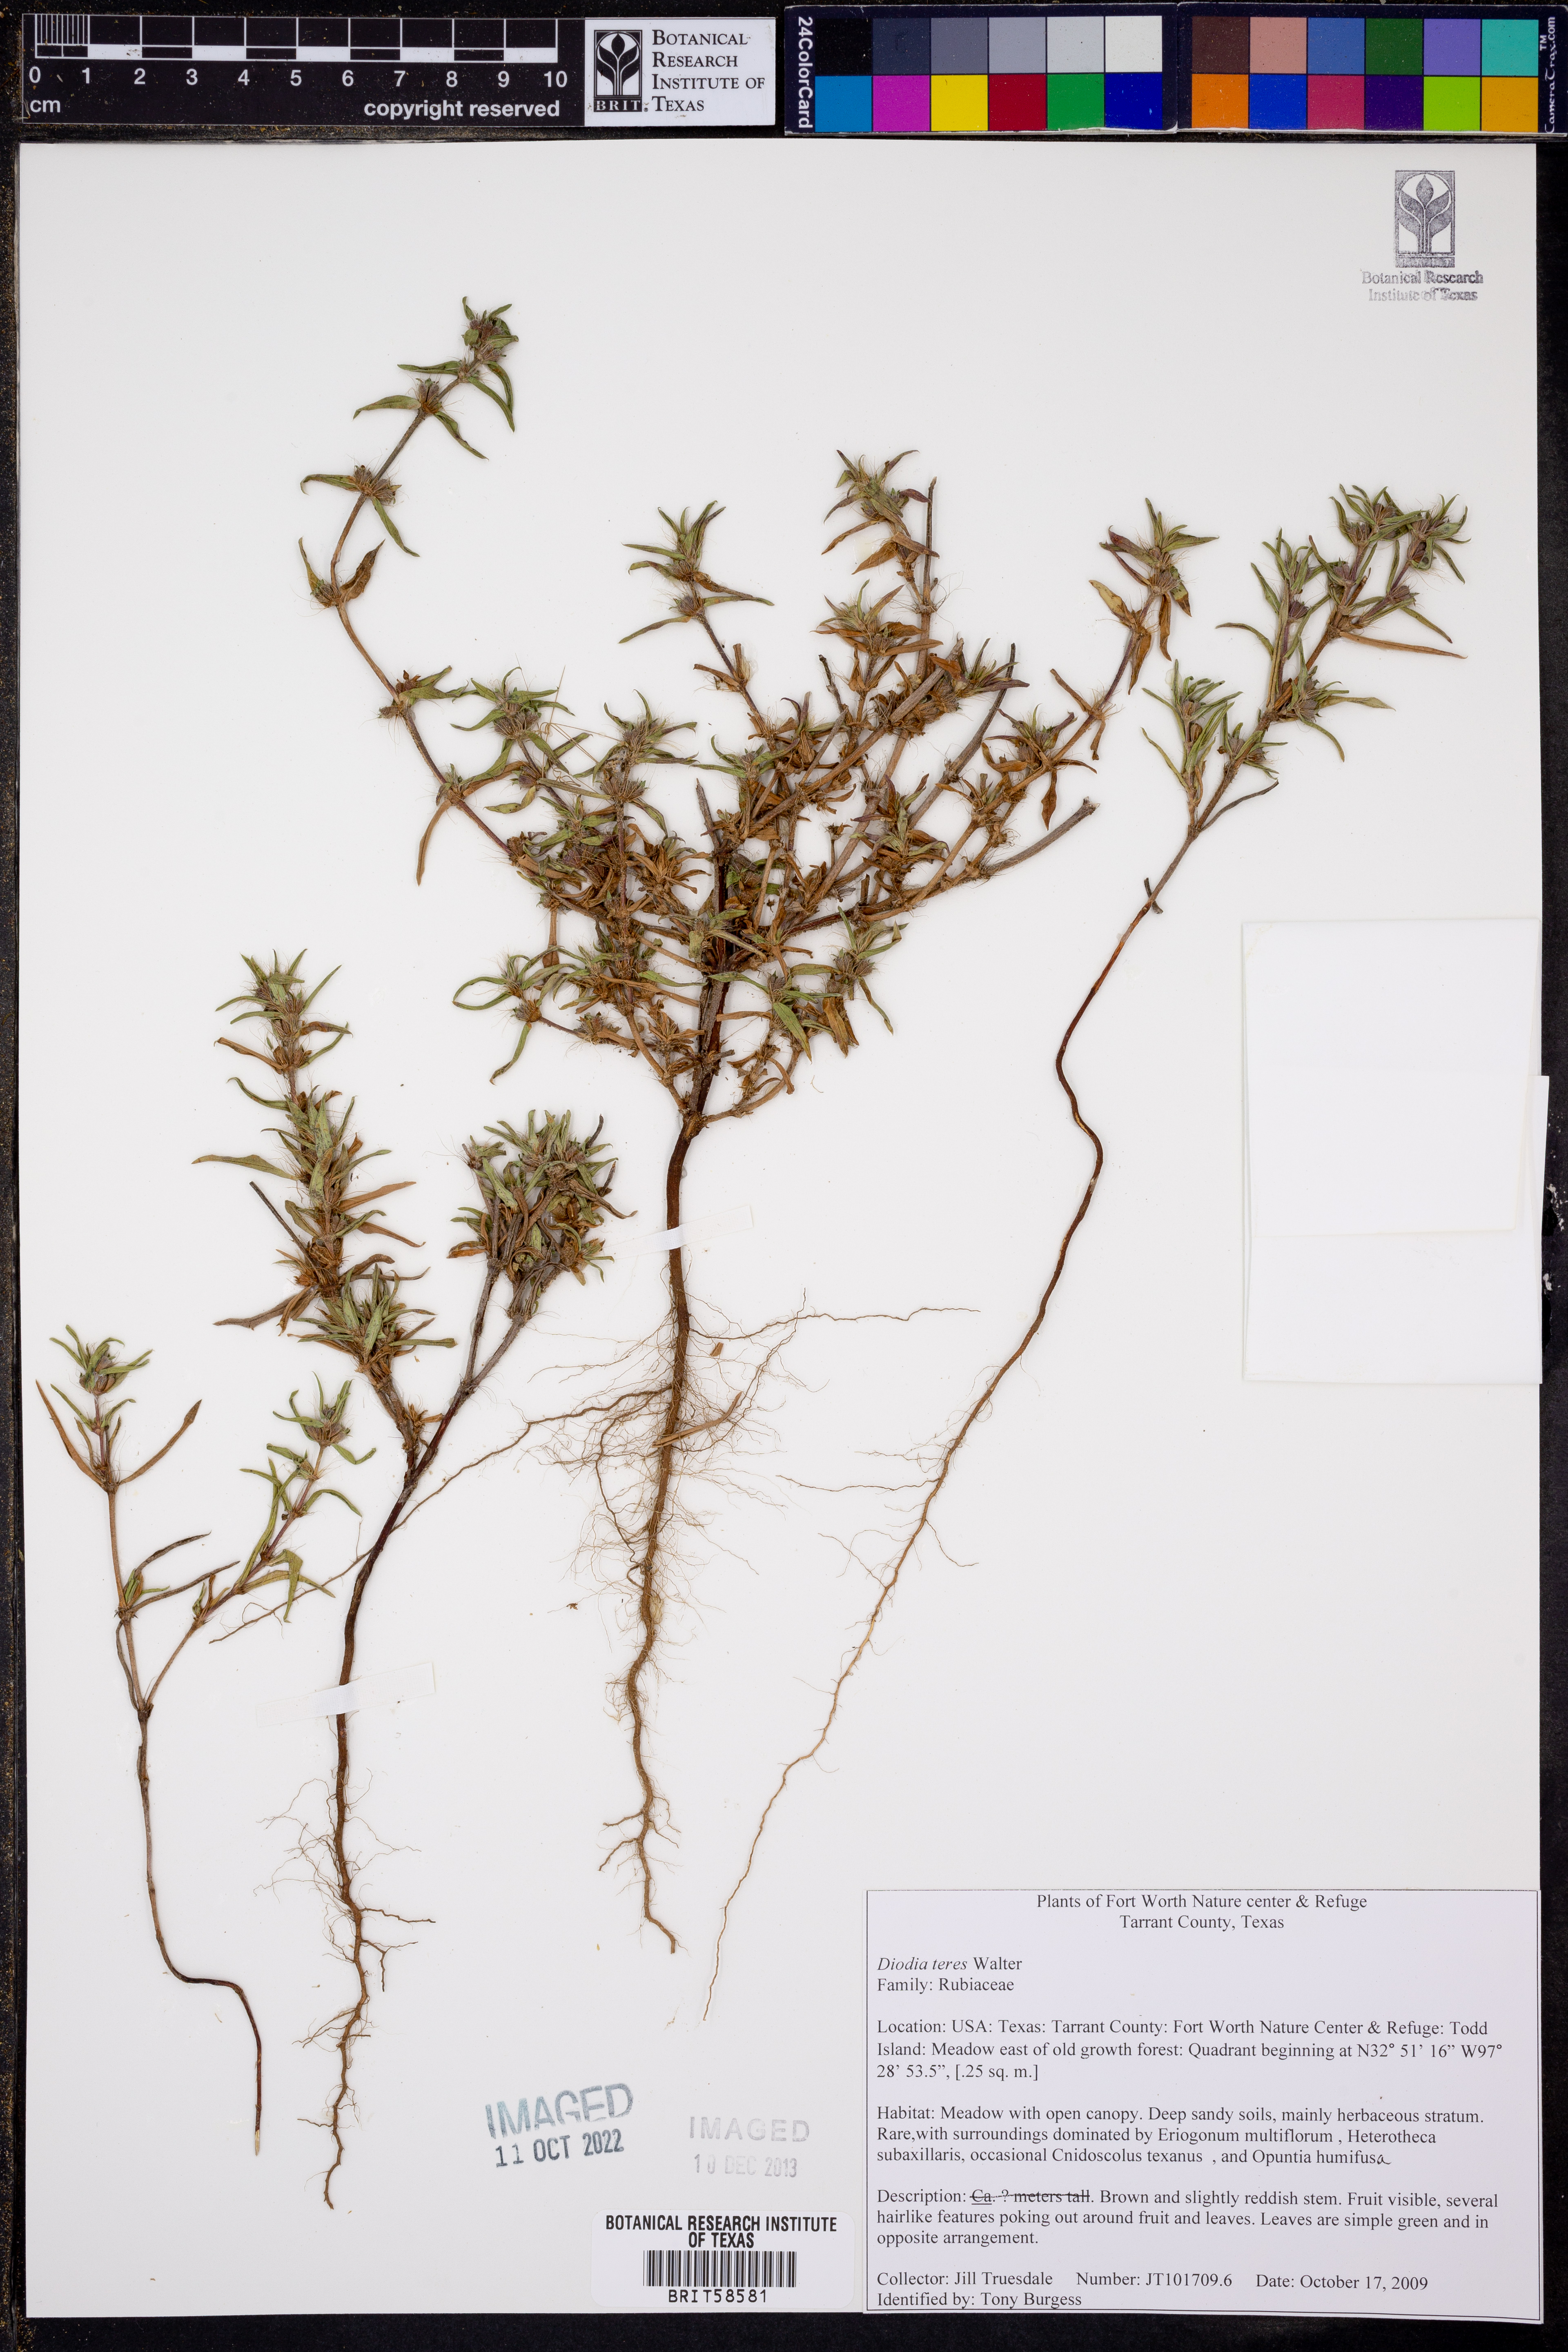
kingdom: Plantae
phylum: Tracheophyta
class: Magnoliopsida
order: Gentianales
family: Rubiaceae
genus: Hexasepalum
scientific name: Hexasepalum teres
